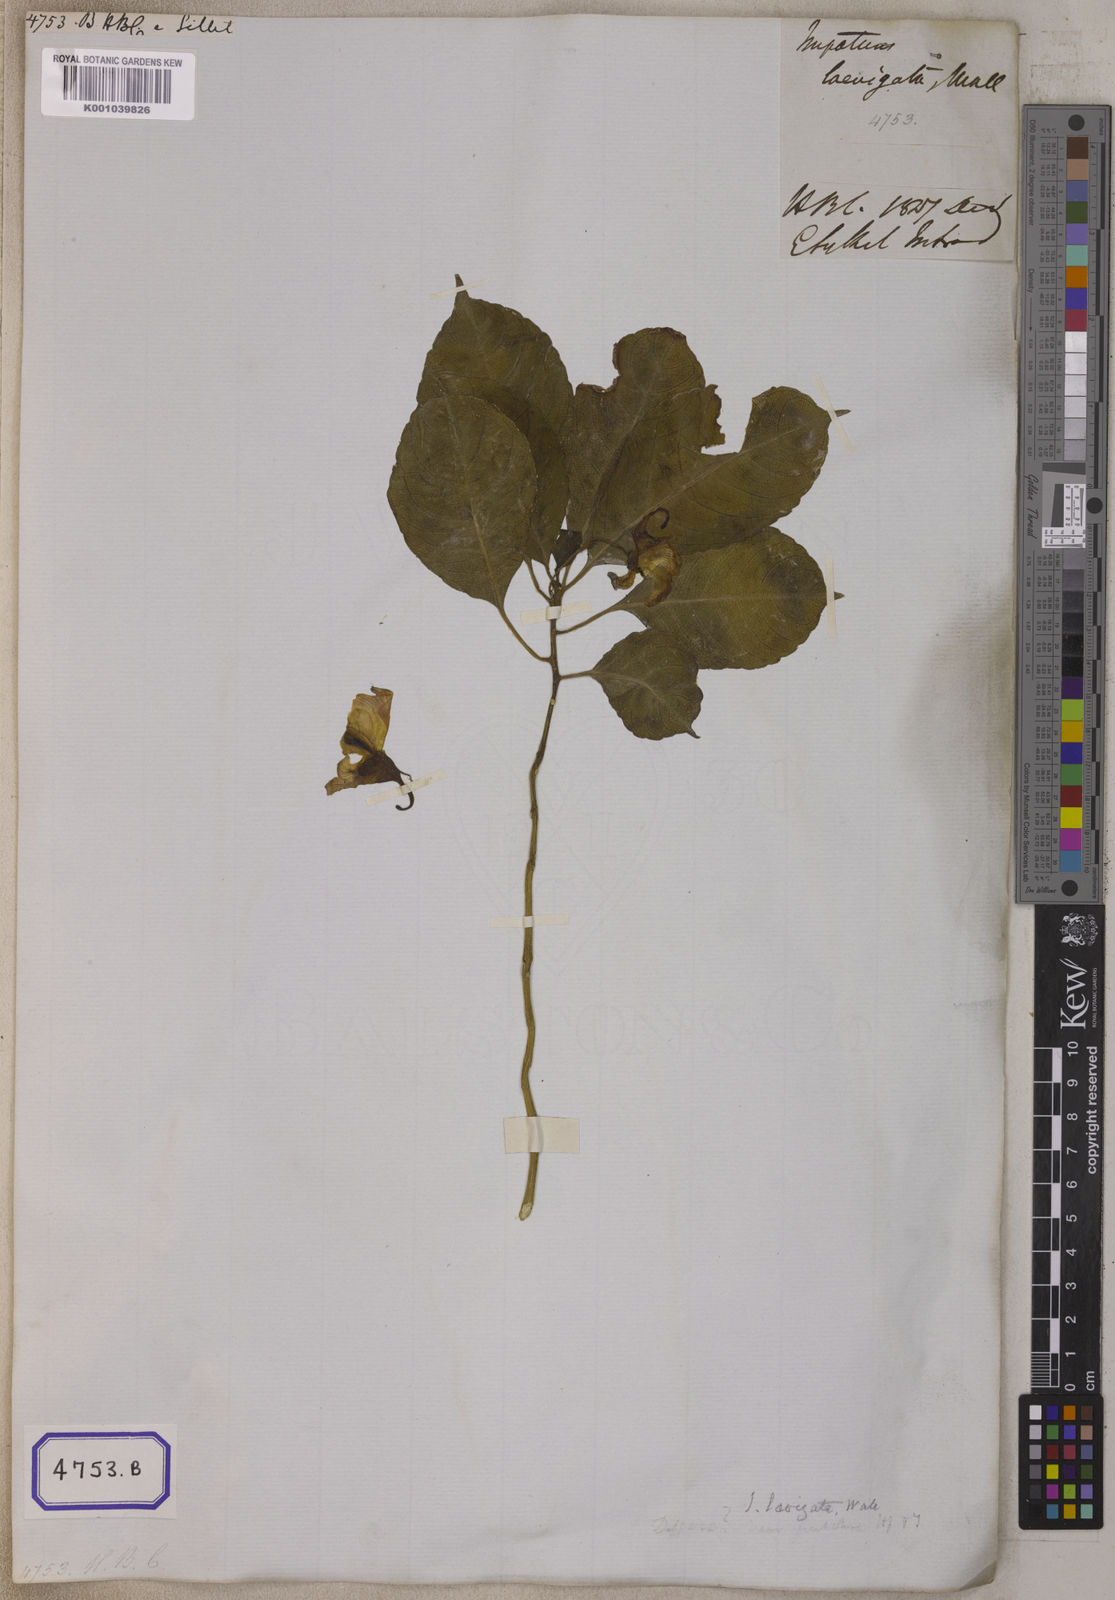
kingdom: Plantae
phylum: Tracheophyta
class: Magnoliopsida
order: Ericales
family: Balsaminaceae
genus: Impatiens
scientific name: Impatiens
